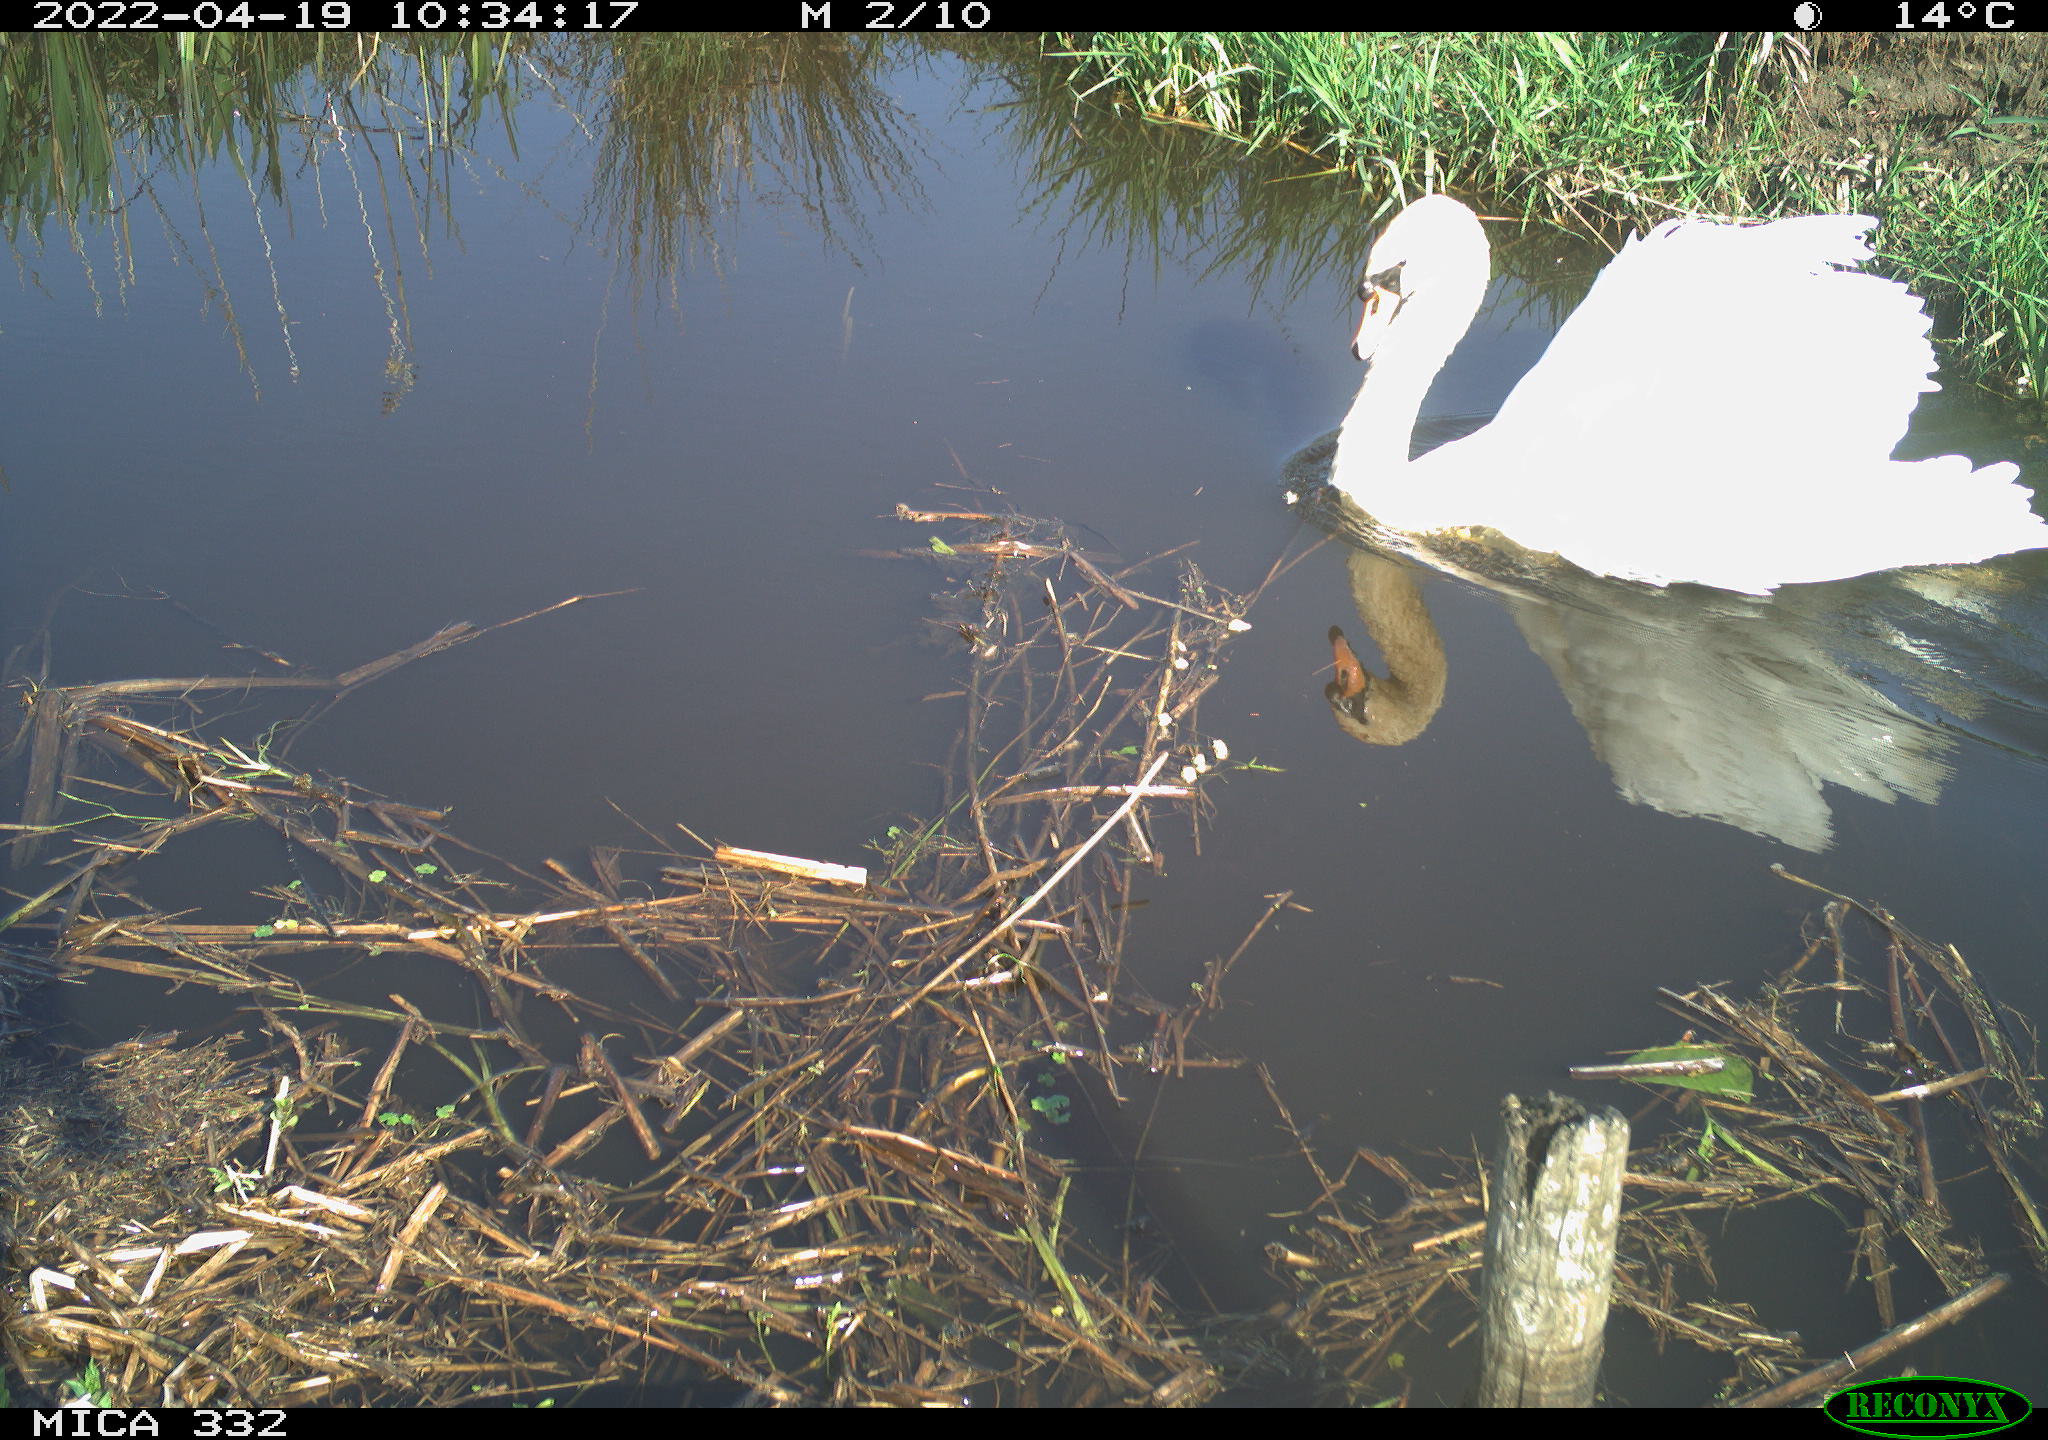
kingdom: Animalia
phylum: Chordata
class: Aves
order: Anseriformes
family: Anatidae
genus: Cygnus
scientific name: Cygnus olor
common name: Mute swan
